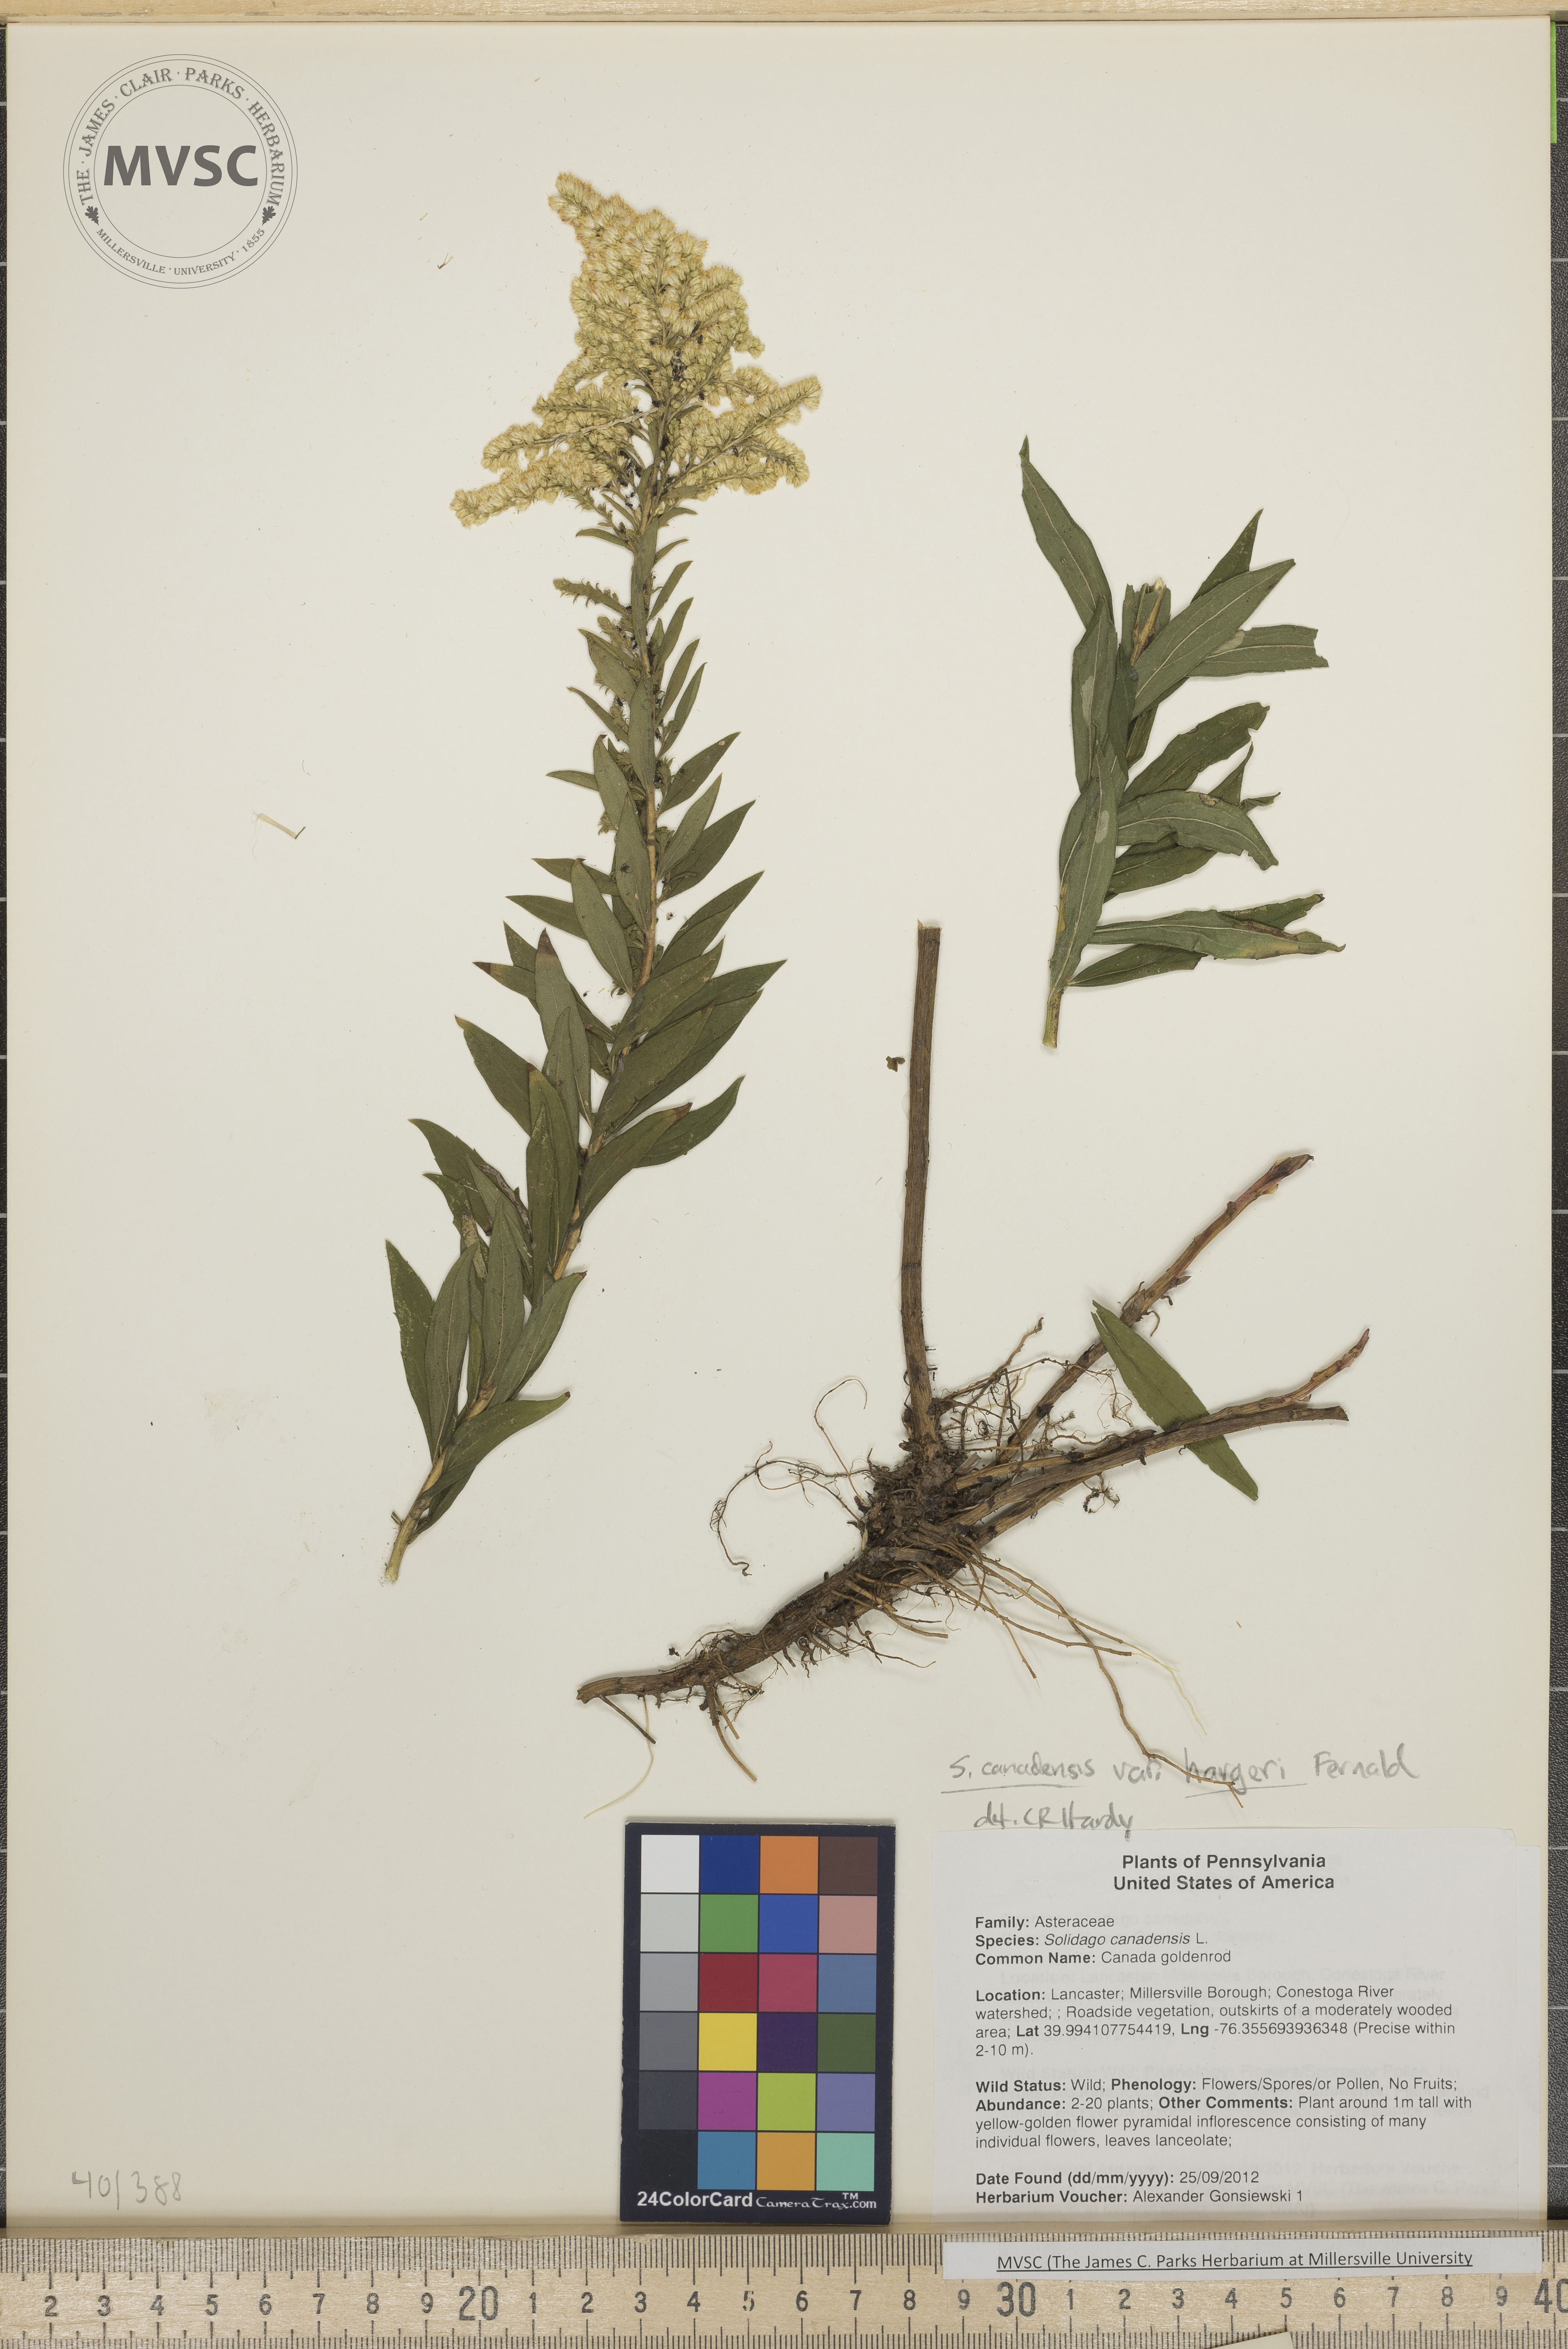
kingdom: Plantae
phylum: Tracheophyta
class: Magnoliopsida
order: Asterales
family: Asteraceae
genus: Solidago
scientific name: Solidago altissima
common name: Late goldenrod
